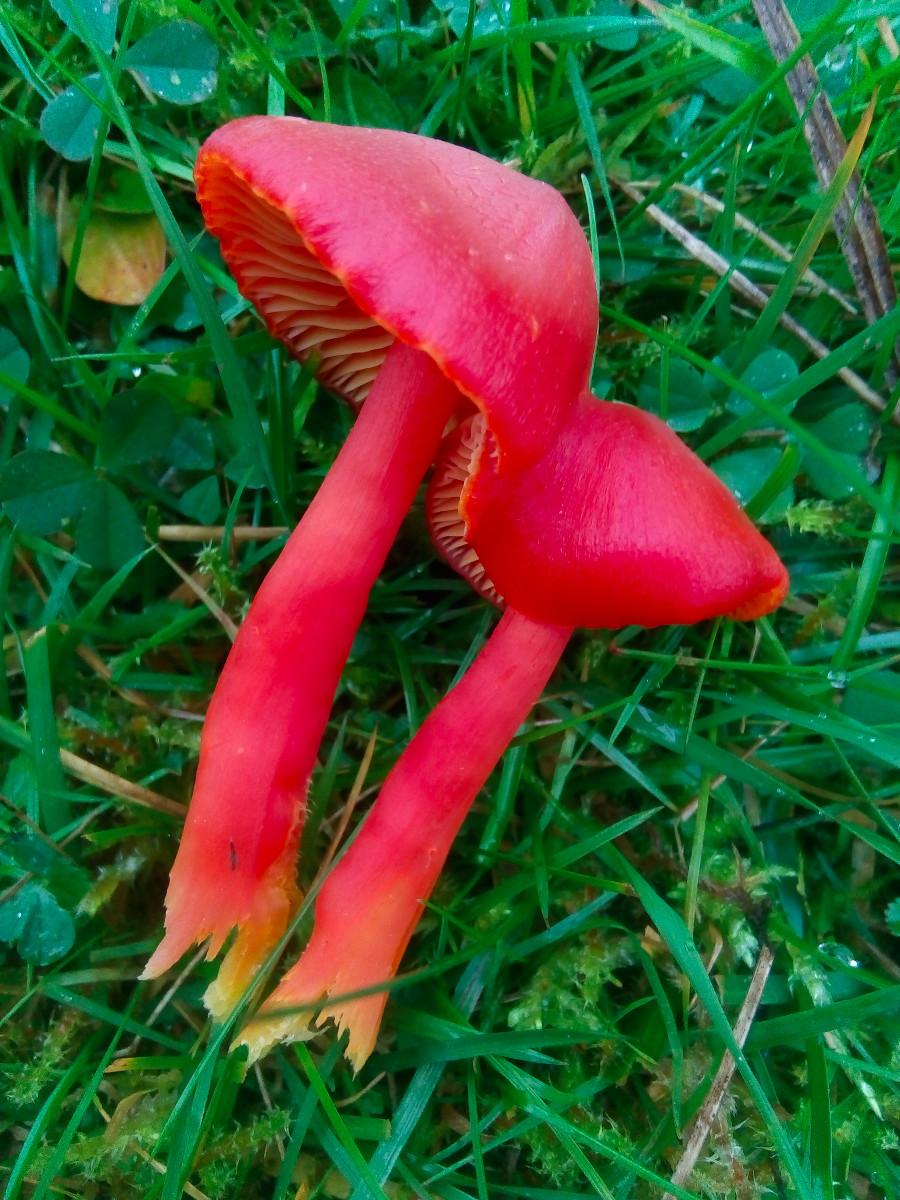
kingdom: Fungi
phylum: Basidiomycota
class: Agaricomycetes
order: Agaricales
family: Hygrophoraceae
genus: Hygrocybe
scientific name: Hygrocybe coccinea
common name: cinnober-vokshat
